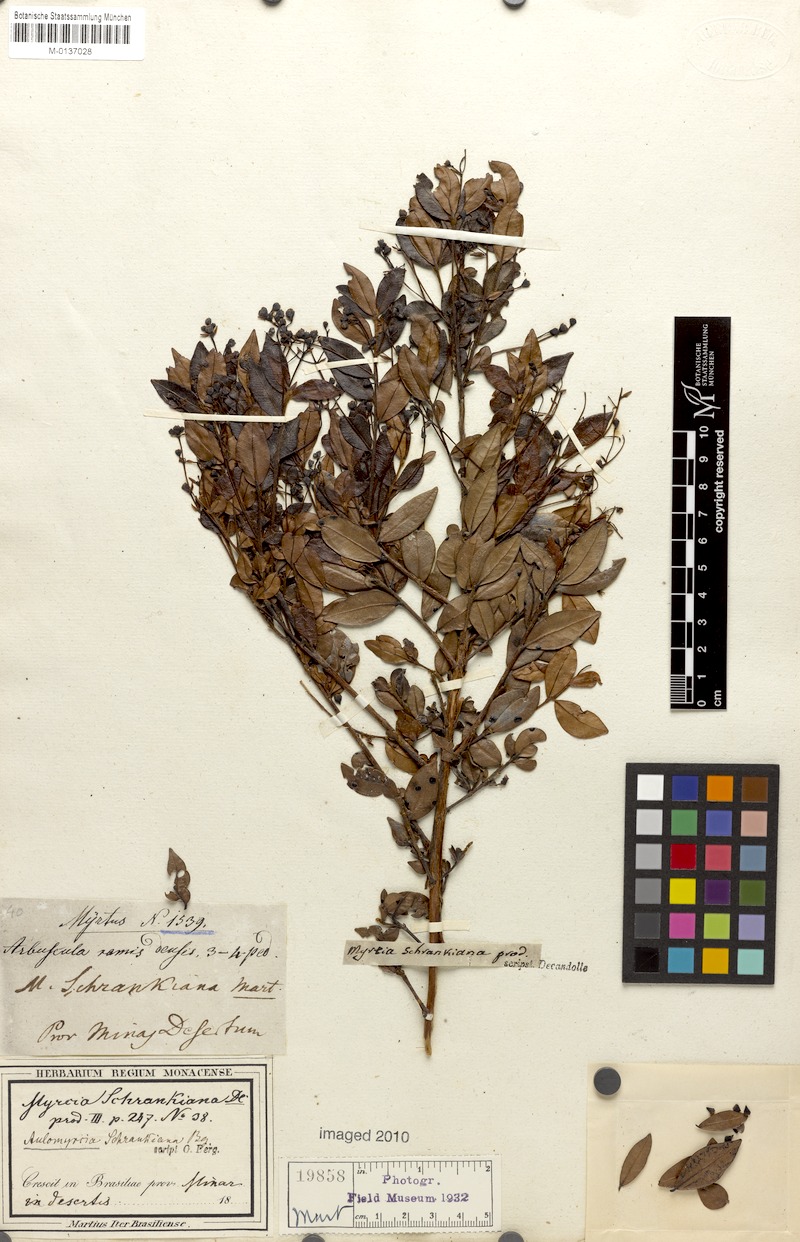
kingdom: Plantae
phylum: Tracheophyta
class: Magnoliopsida
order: Myrtales
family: Myrtaceae
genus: Myrcia
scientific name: Myrcia guianensis
